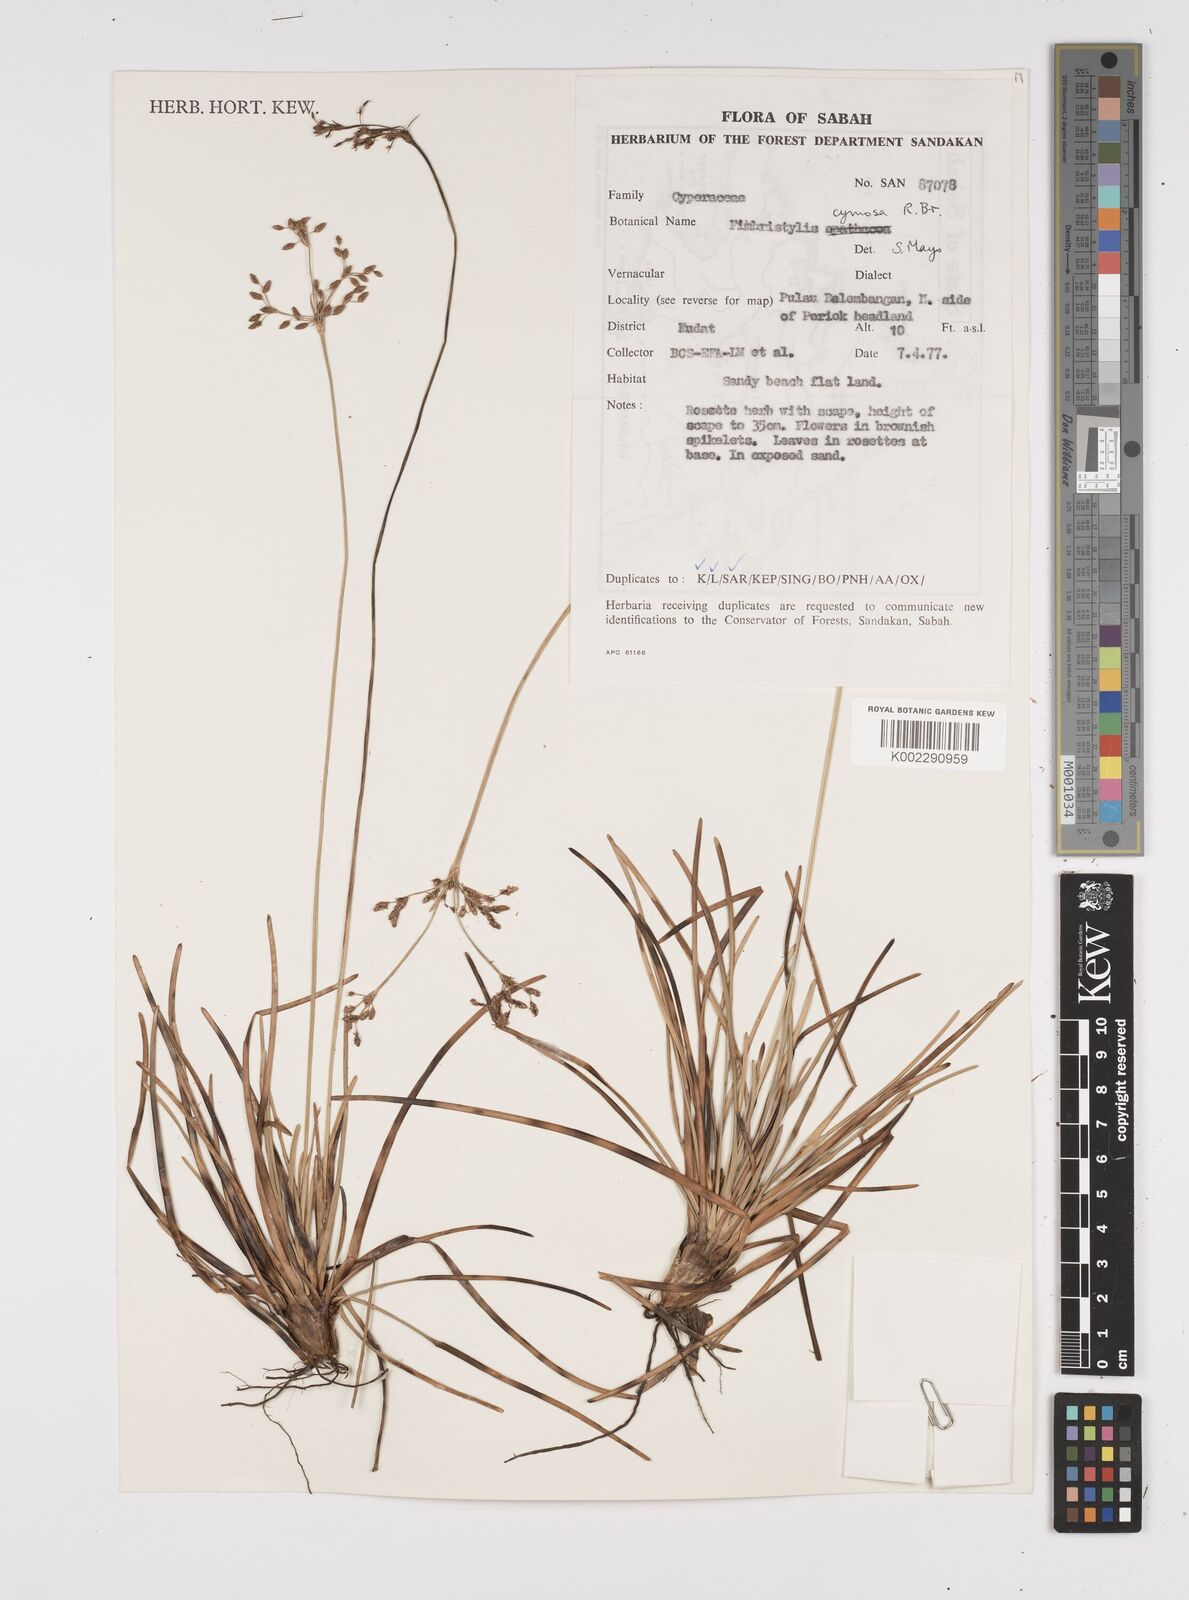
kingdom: Plantae
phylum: Tracheophyta
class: Liliopsida
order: Poales
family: Cyperaceae
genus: Fimbristylis
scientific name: Fimbristylis cymosa
